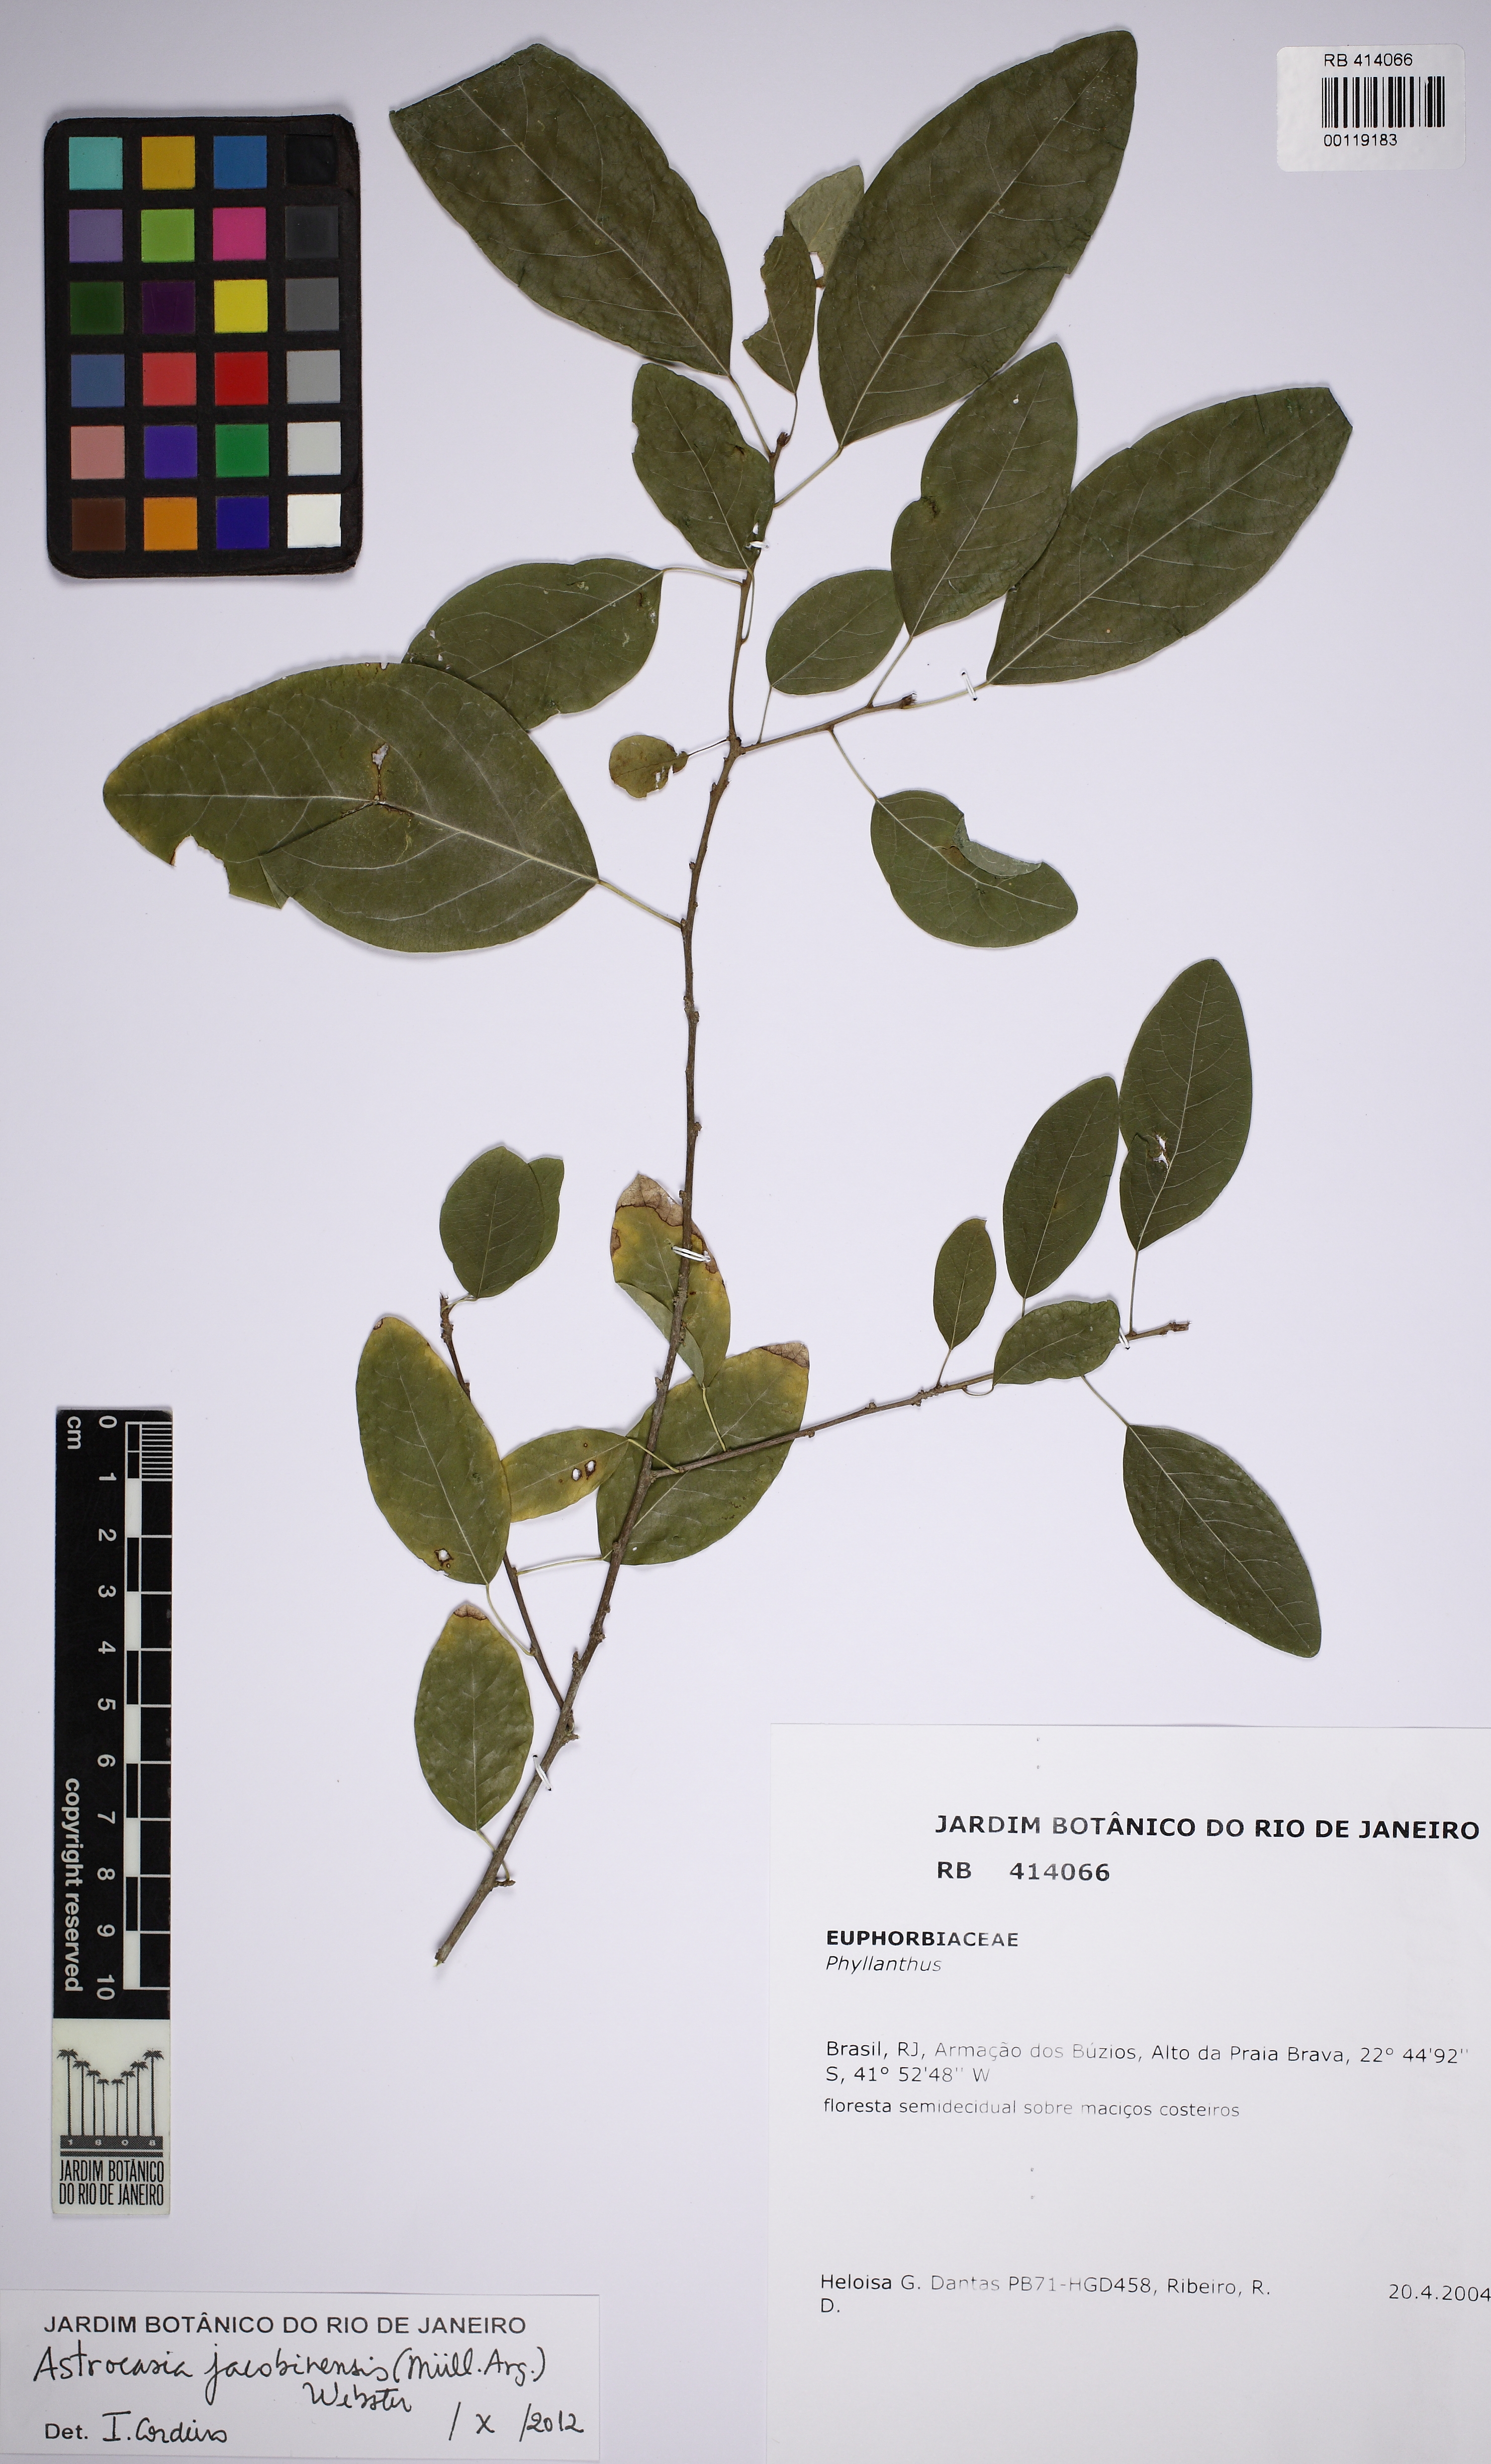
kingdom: Plantae
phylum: Tracheophyta
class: Magnoliopsida
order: Malpighiales
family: Phyllanthaceae
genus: Astrocasia
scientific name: Astrocasia jacobinensis
